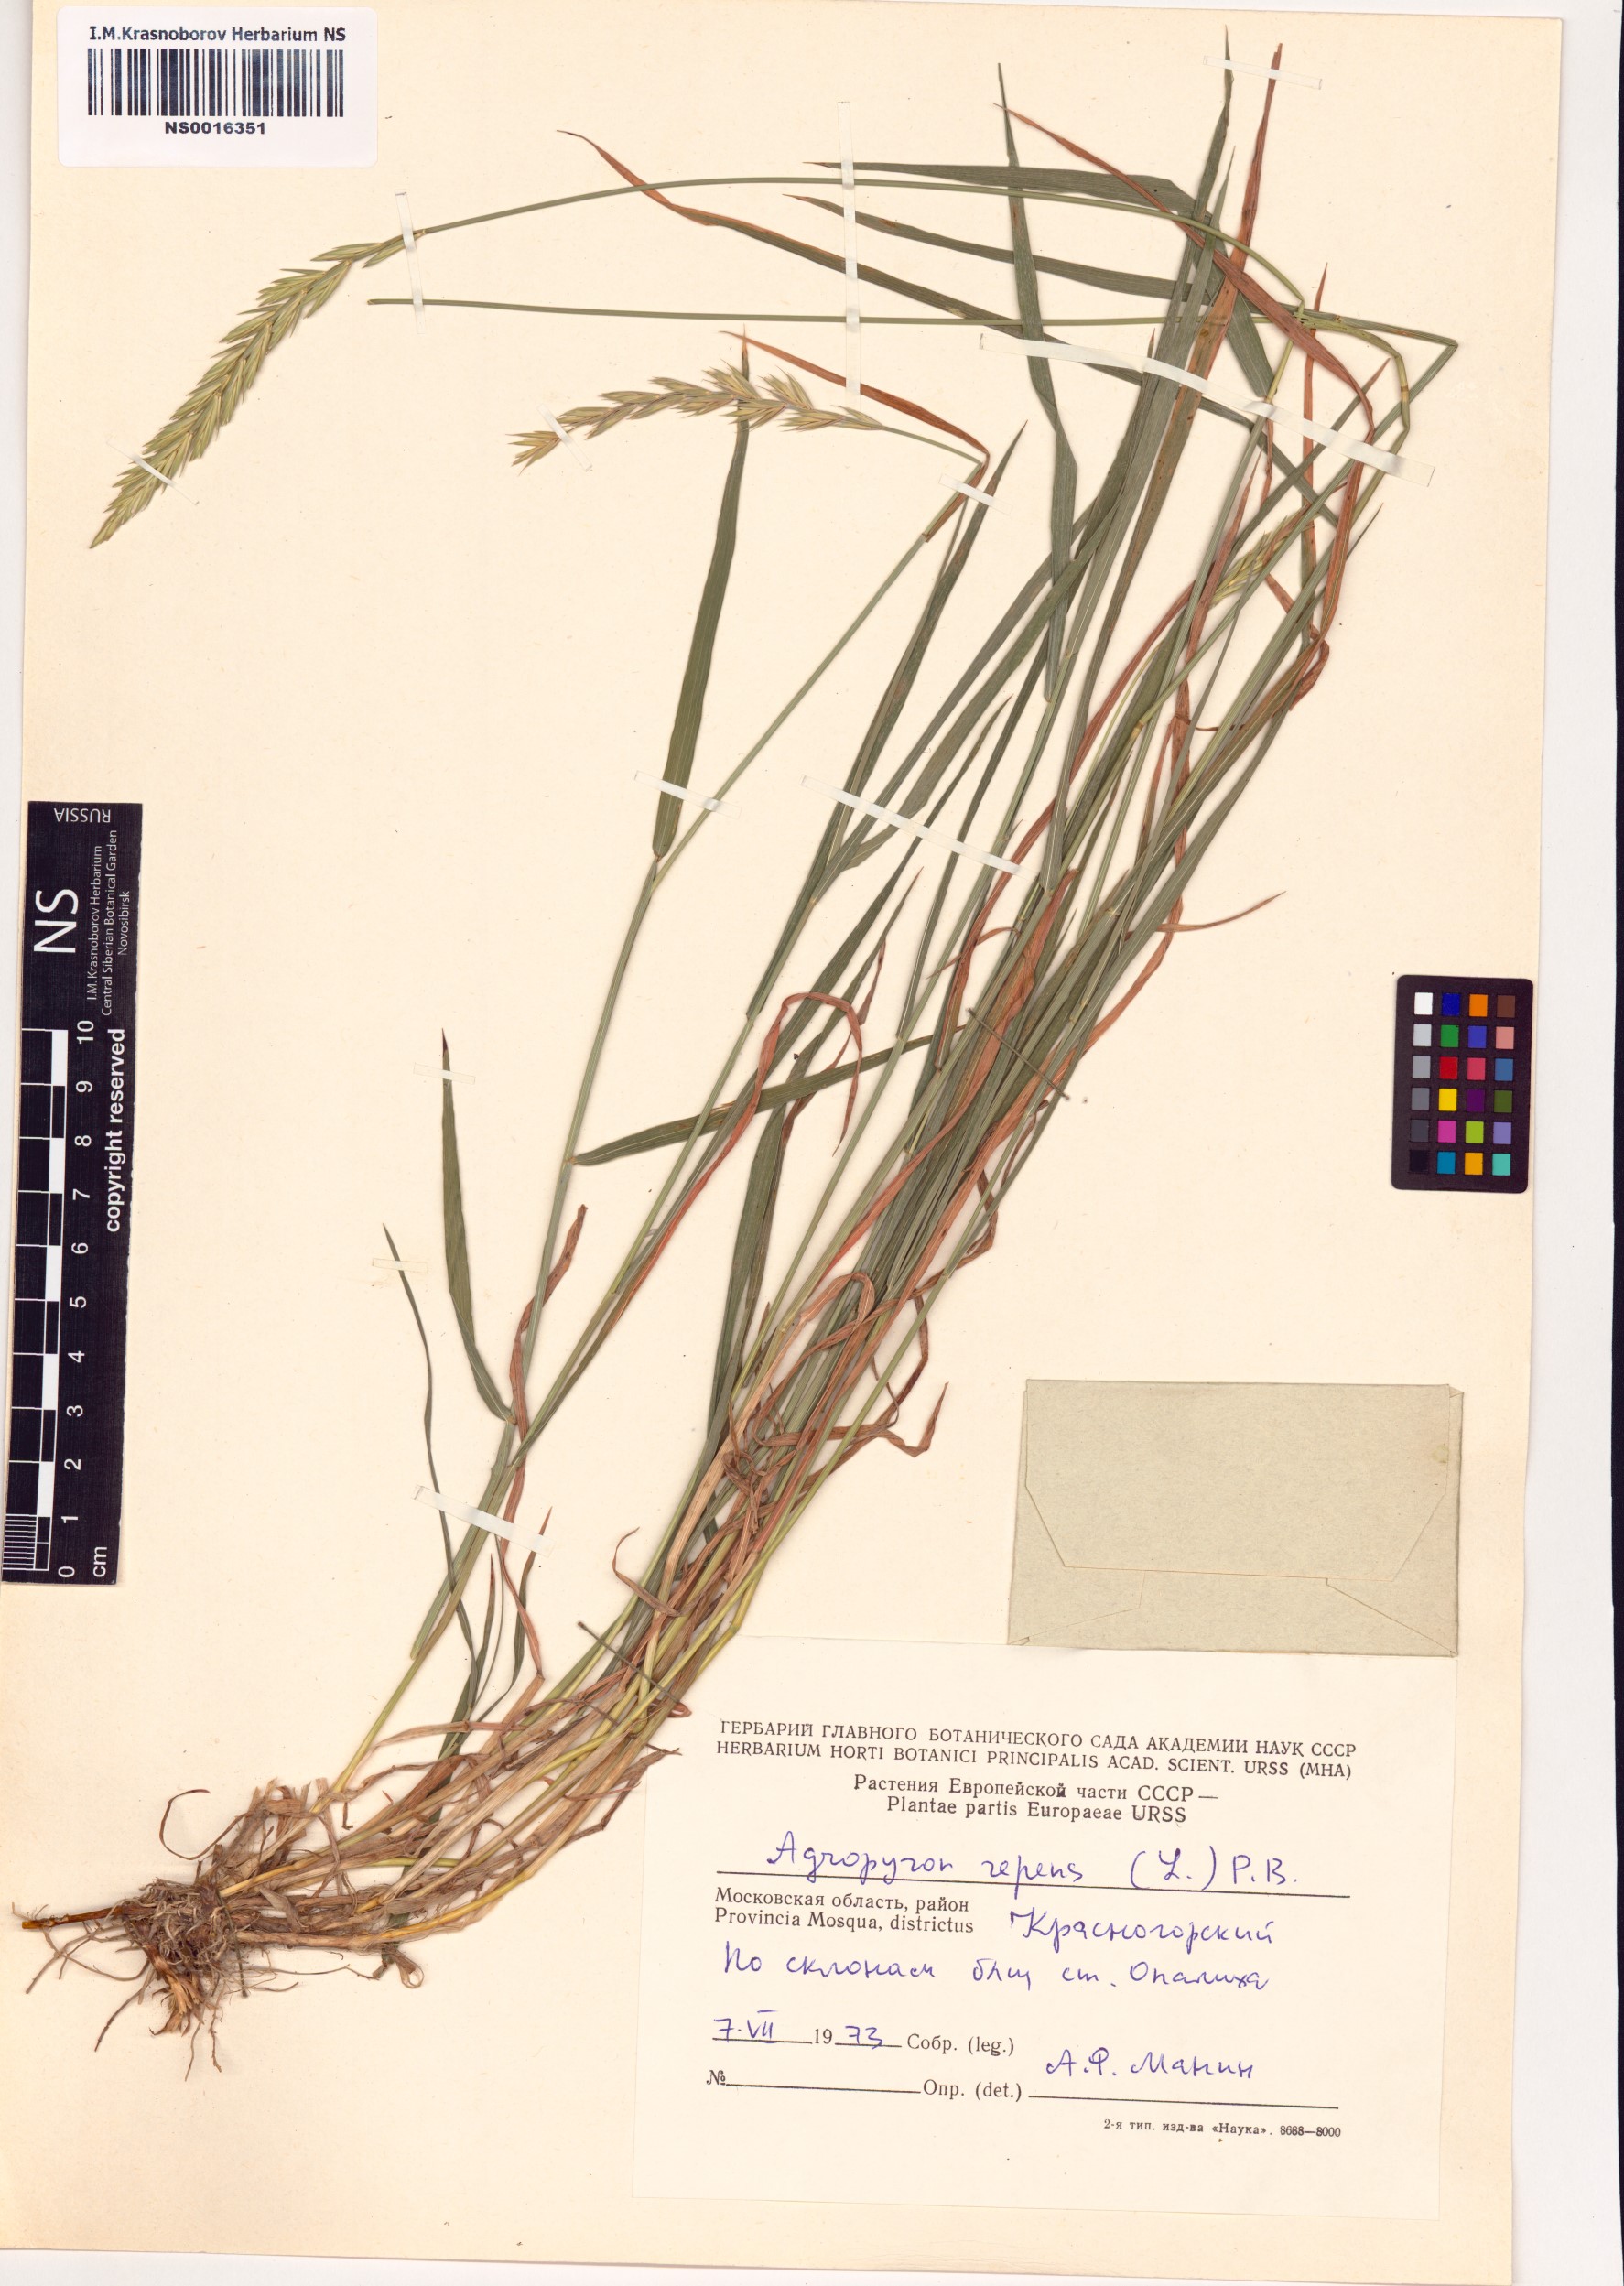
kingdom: Plantae
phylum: Tracheophyta
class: Liliopsida
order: Poales
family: Poaceae
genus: Elymus
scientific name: Elymus repens
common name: Quackgrass
